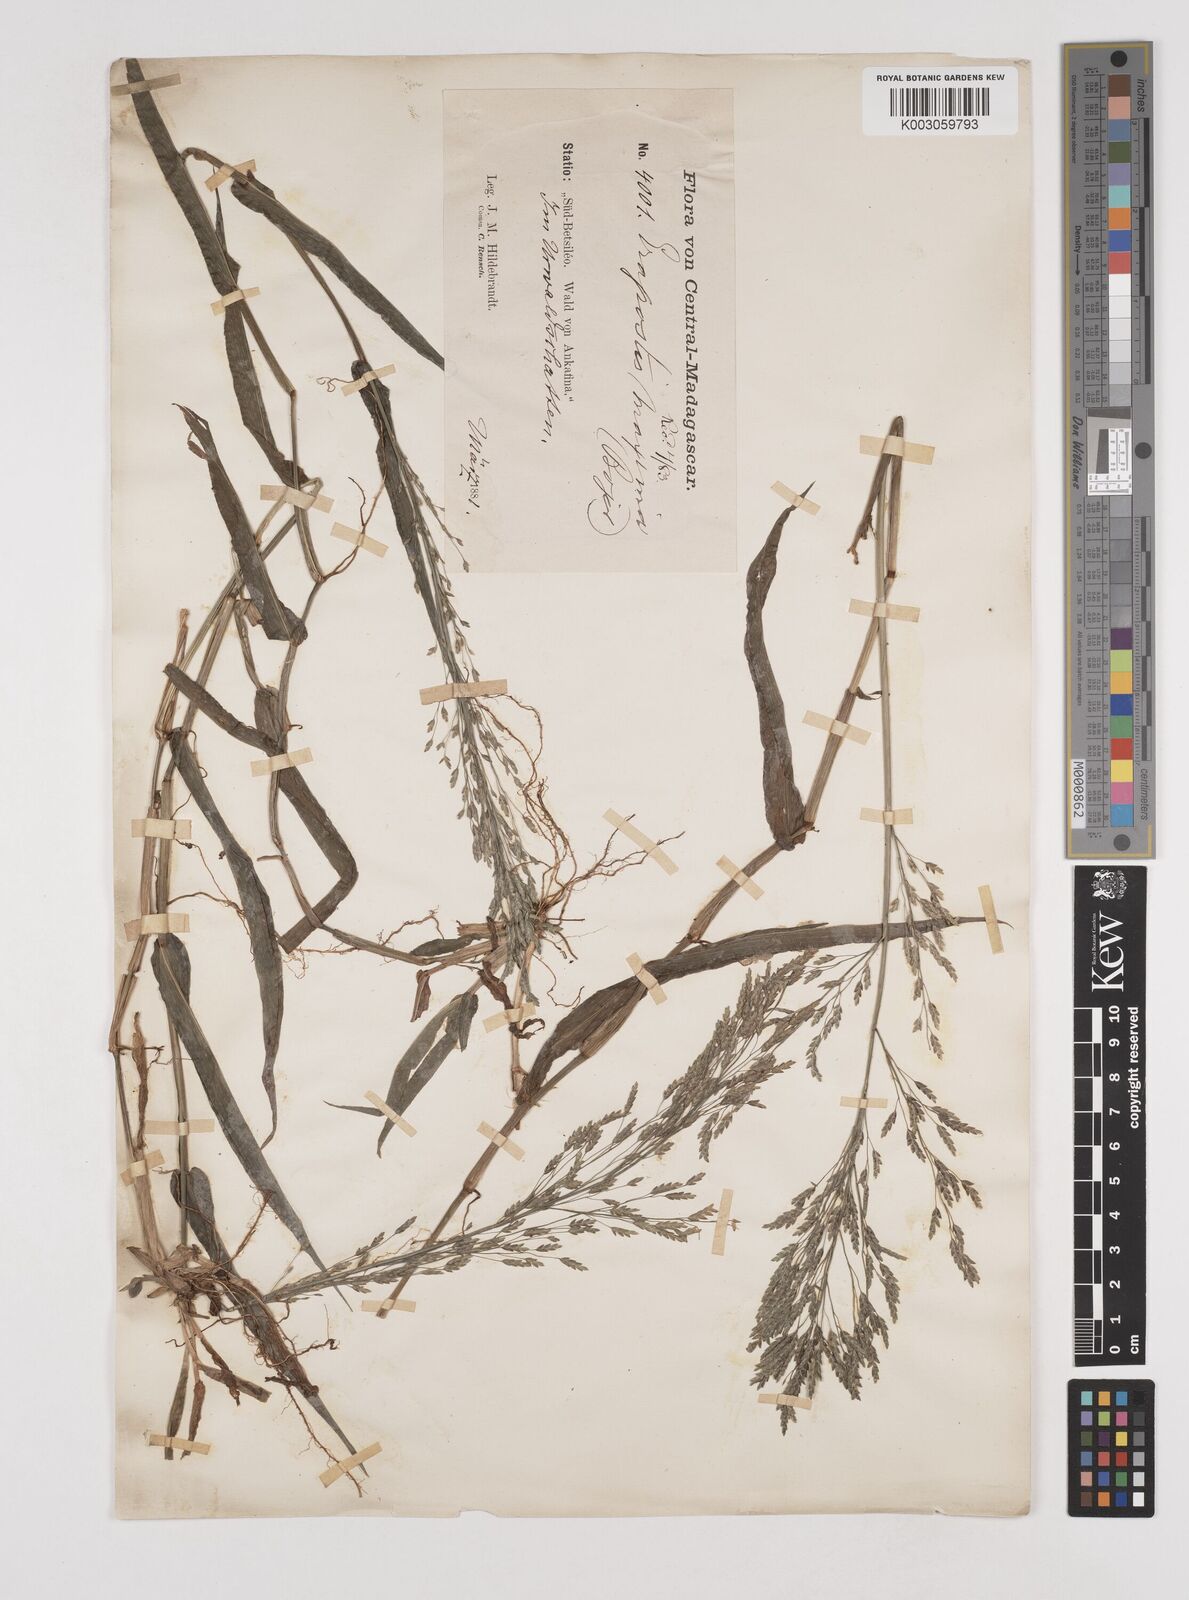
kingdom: Plantae
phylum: Tracheophyta
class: Liliopsida
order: Poales
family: Poaceae
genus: Megastachya
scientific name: Megastachya mucronata
